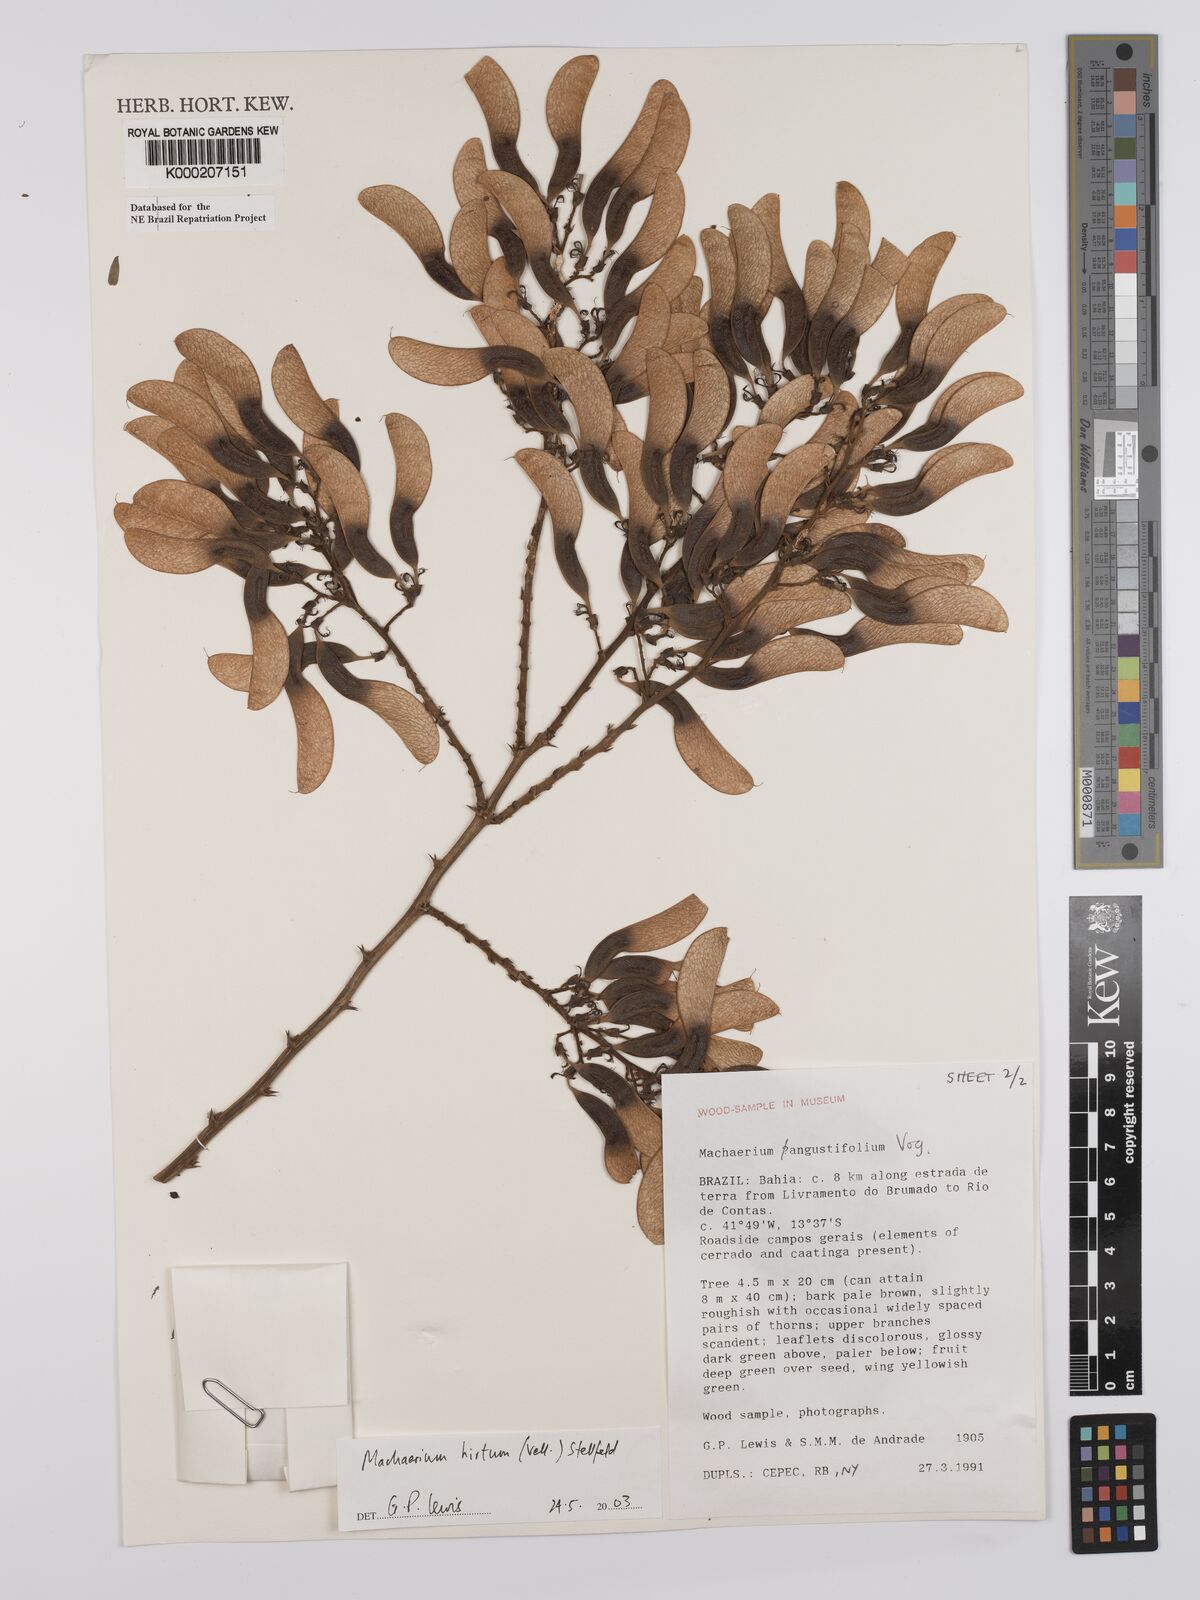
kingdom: Plantae
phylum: Tracheophyta
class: Magnoliopsida
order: Fabales
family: Fabaceae
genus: Machaerium
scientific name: Machaerium hirtum
